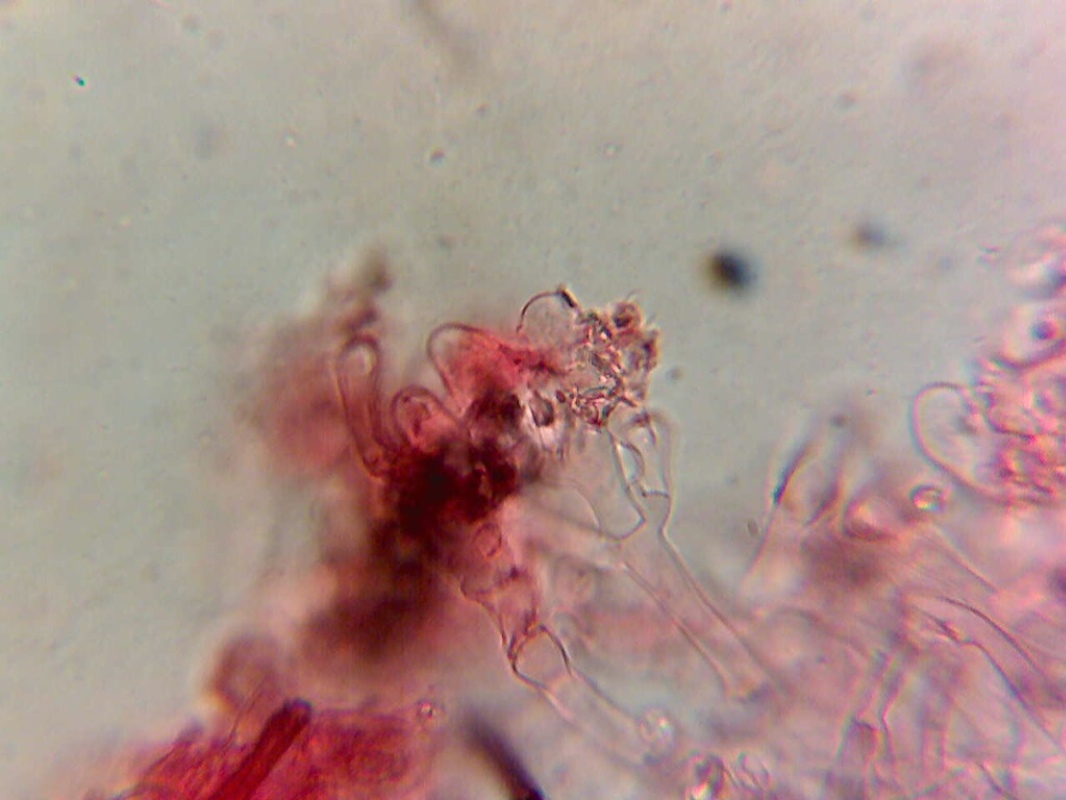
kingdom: Fungi
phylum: Basidiomycota
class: Agaricomycetes
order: Trechisporales
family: Hydnodontaceae
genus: Brevicellicium
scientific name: Brevicellicium olivascens
